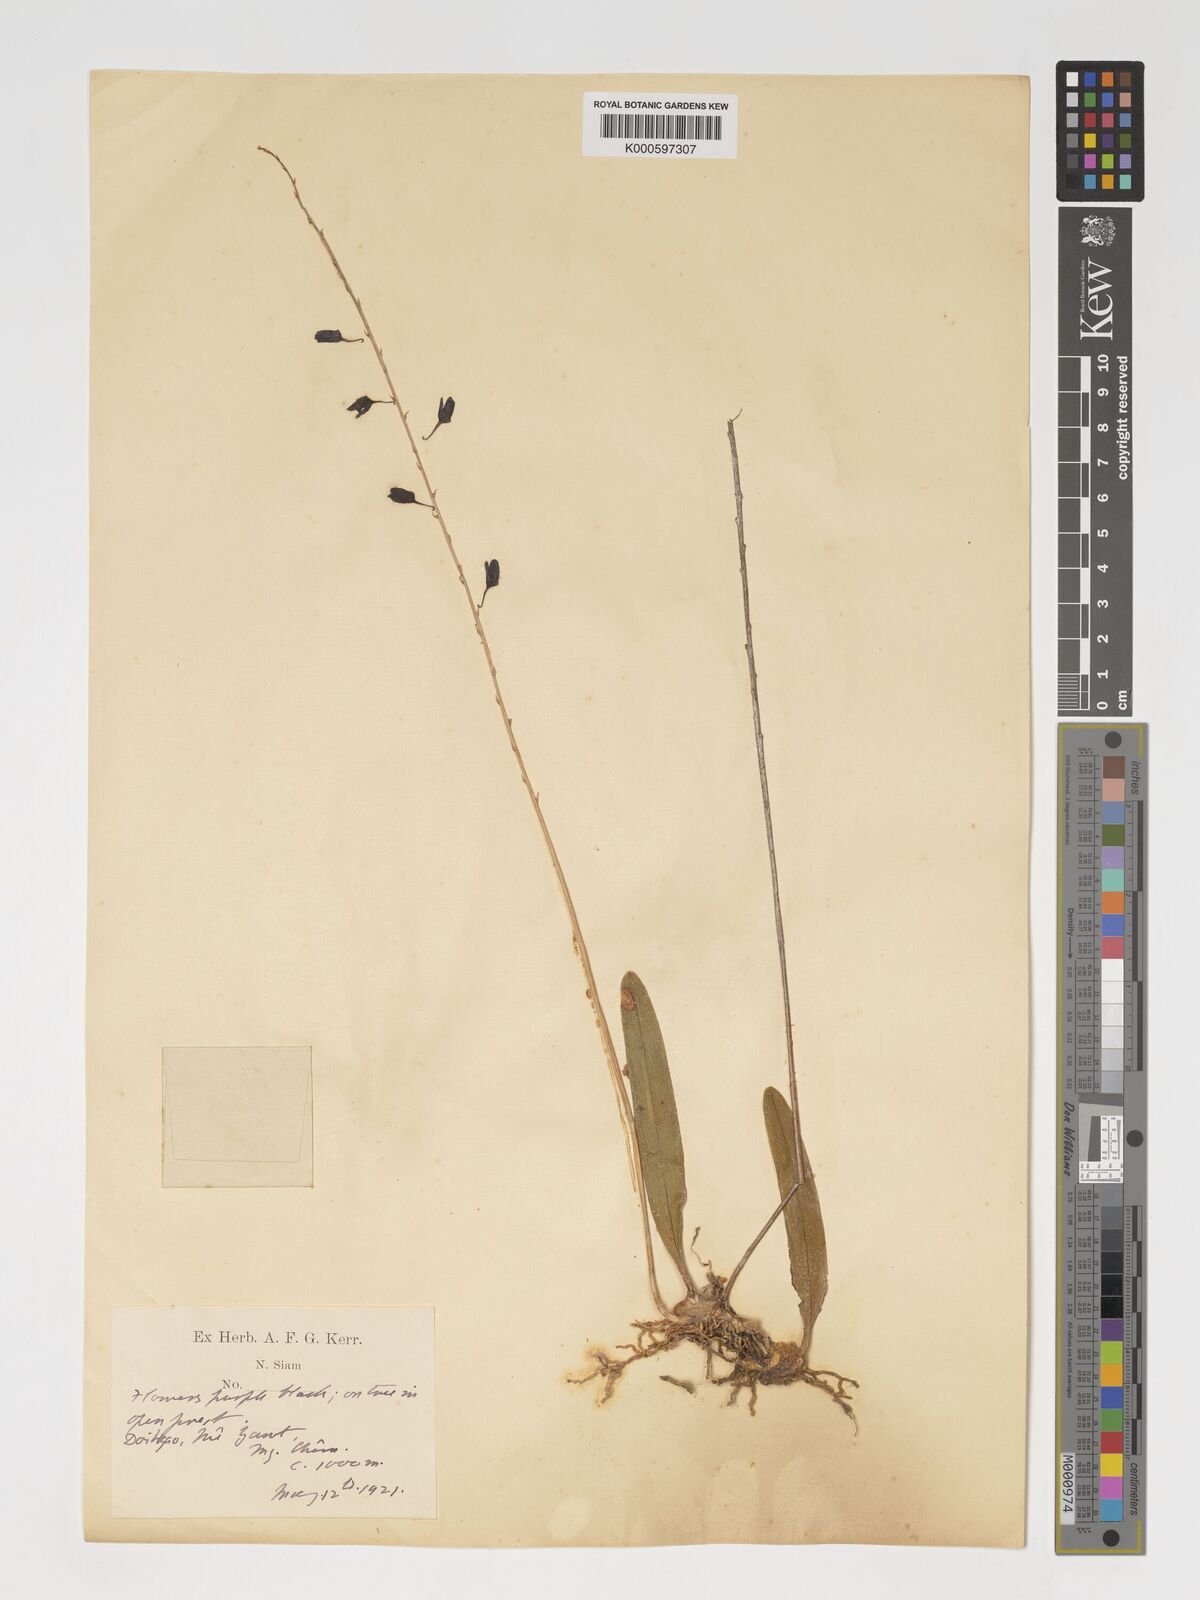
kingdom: Plantae
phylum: Tracheophyta
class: Liliopsida
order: Asparagales
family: Orchidaceae
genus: Bulbophyllum
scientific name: Bulbophyllum nigrescens
